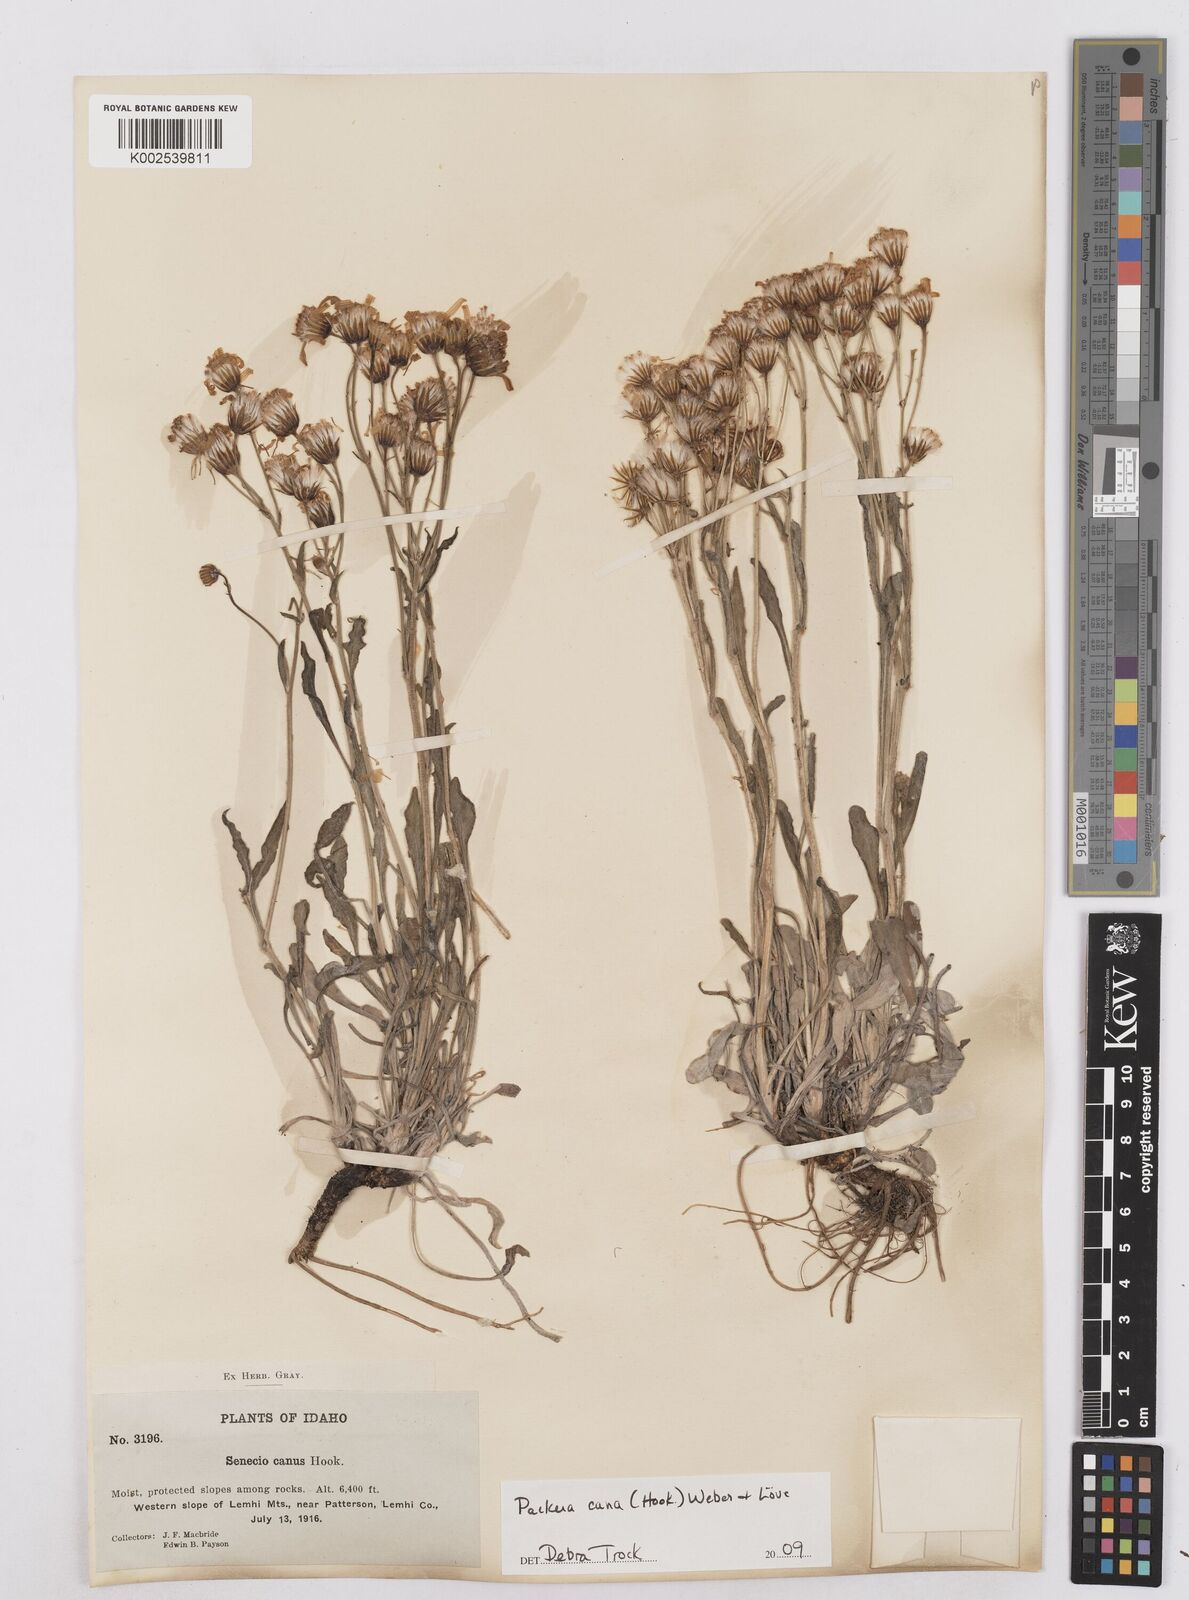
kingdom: Plantae
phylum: Tracheophyta
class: Magnoliopsida
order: Asterales
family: Asteraceae
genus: Packera
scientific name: Packera cana
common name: Woolly groundsel
